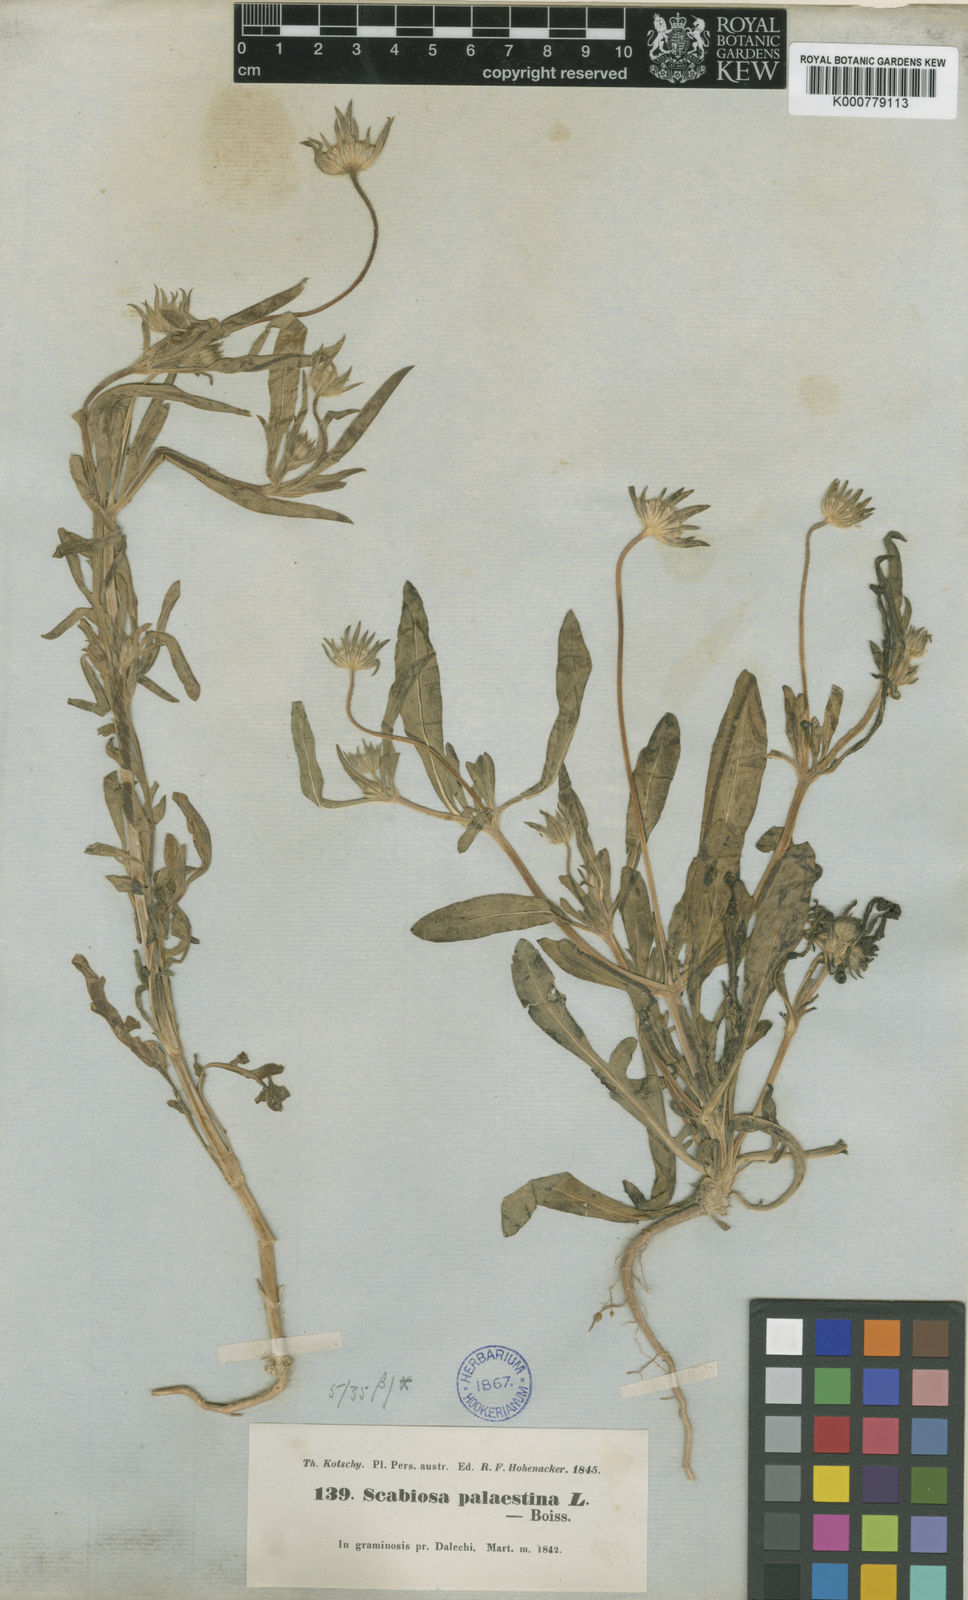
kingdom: Plantae
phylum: Tracheophyta
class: Magnoliopsida
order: Dipsacales
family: Caprifoliaceae
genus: Lomelosia
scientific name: Lomelosia palaestina
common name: Balkan pincushions
